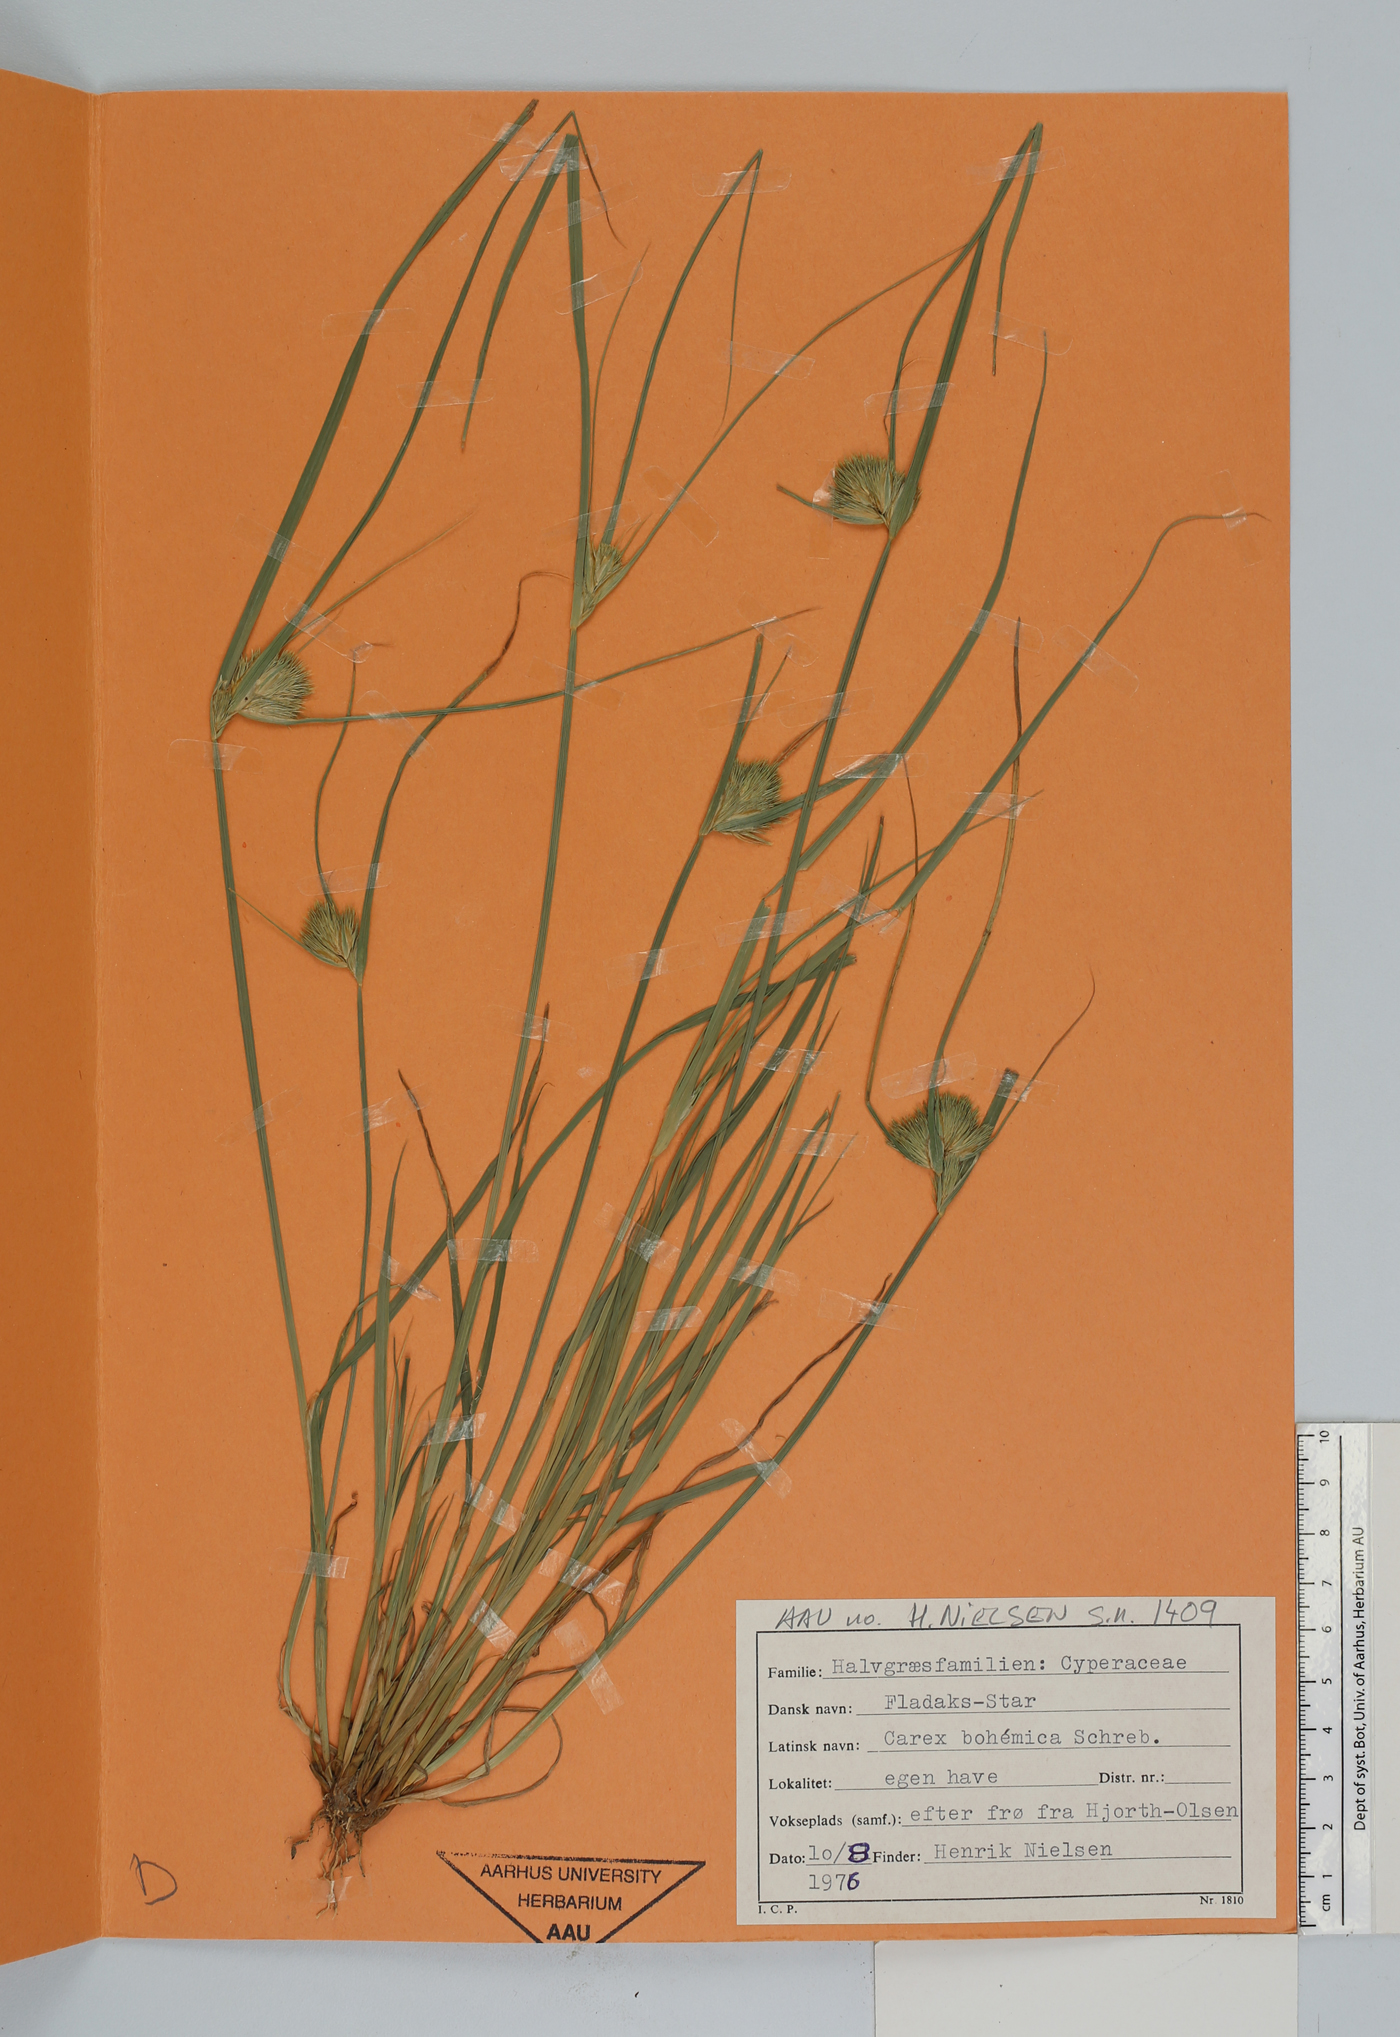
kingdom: Plantae
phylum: Tracheophyta
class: Liliopsida
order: Poales
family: Cyperaceae
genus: Carex
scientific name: Carex bohemica
